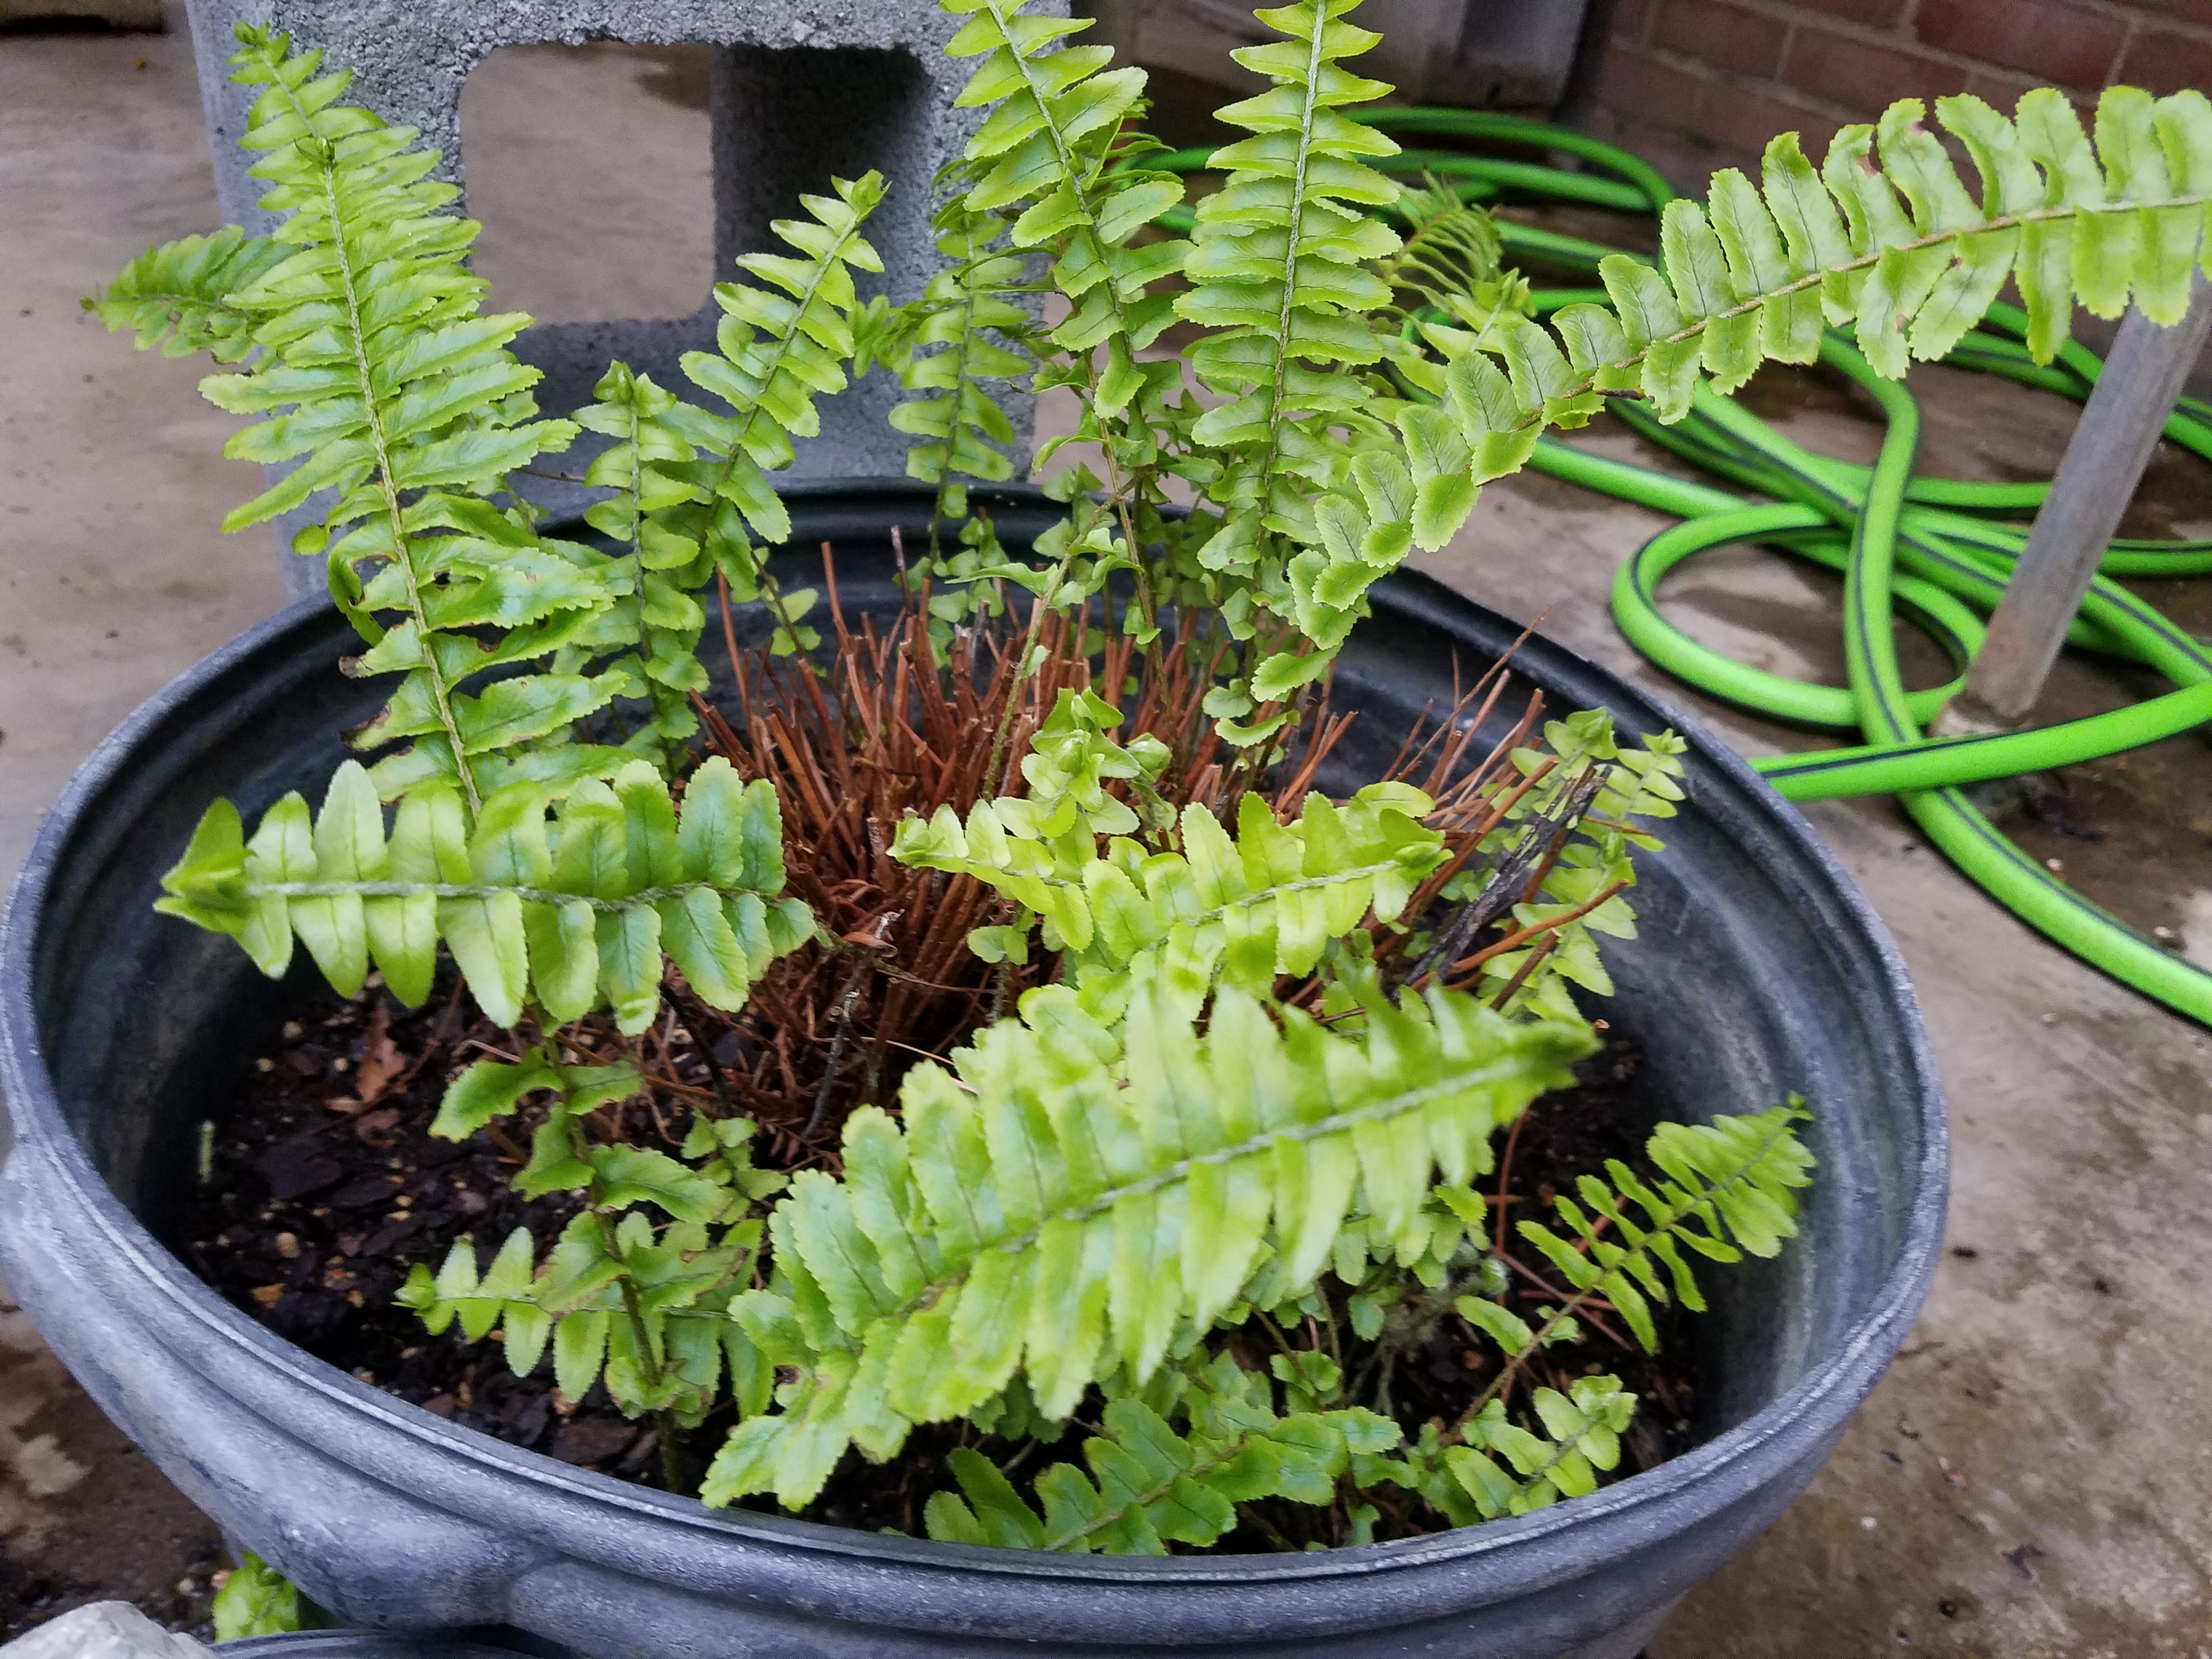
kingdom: Plantae
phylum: Tracheophyta
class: Polypodiopsida
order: Polypodiales
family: Nephrolepidaceae
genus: Nephrolepis
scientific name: Nephrolepis obliterata
